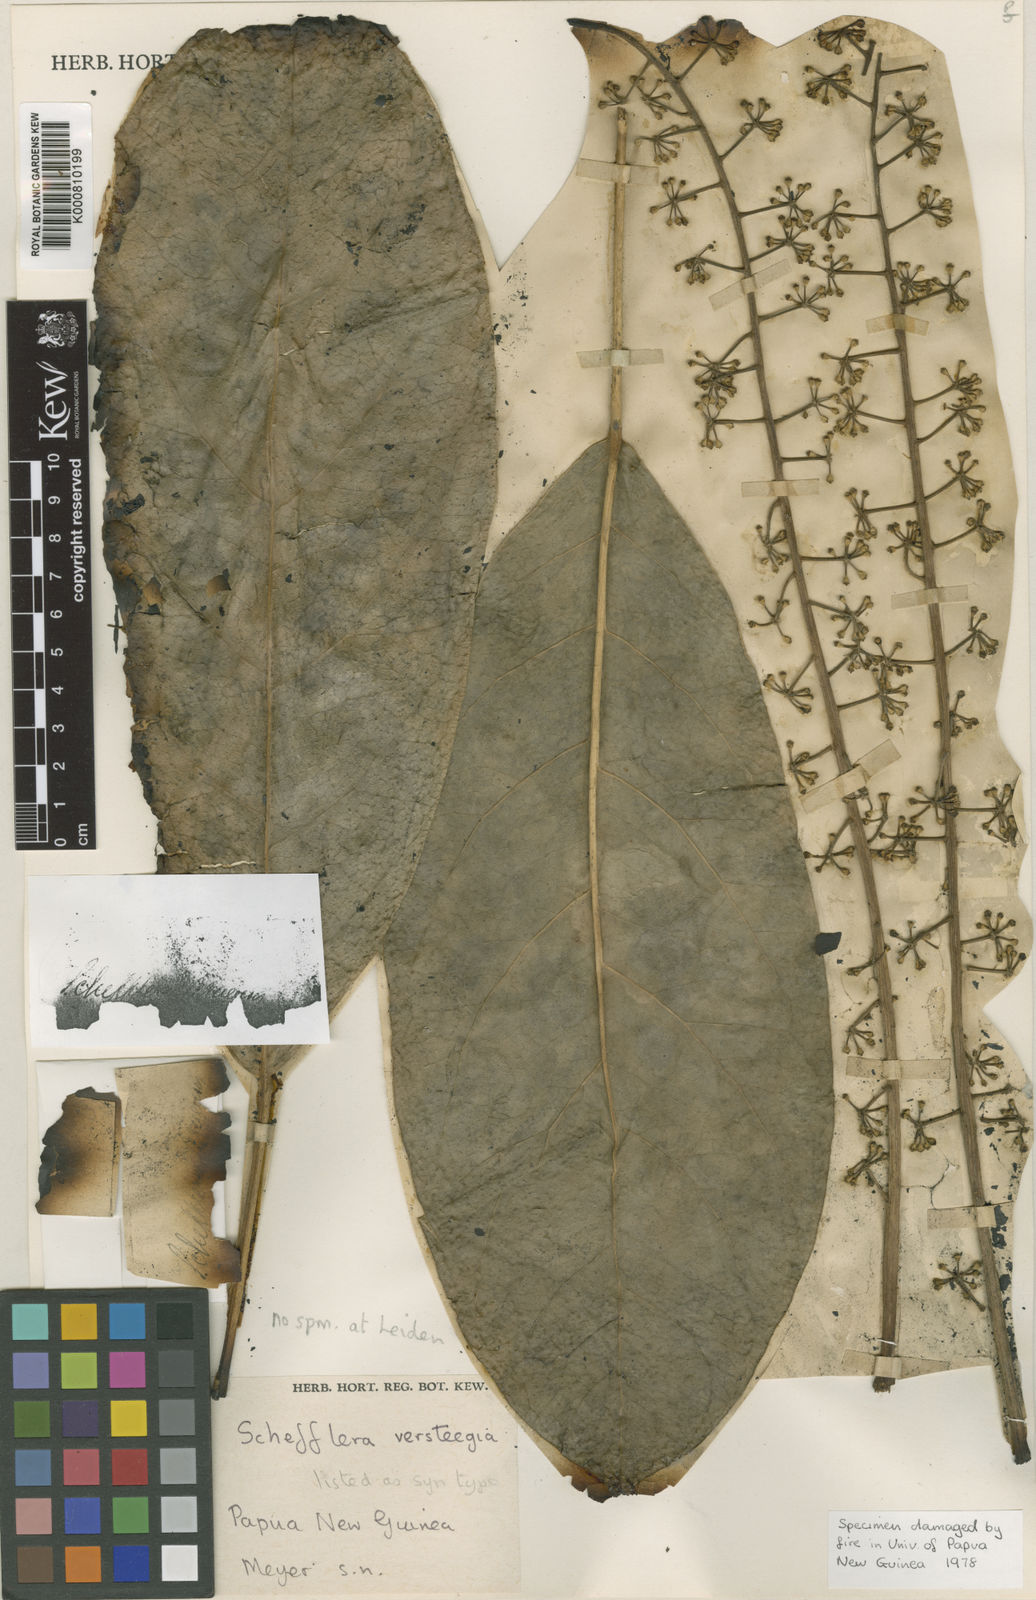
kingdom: Plantae
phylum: Tracheophyta
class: Magnoliopsida
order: Apiales
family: Araliaceae
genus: Heptapleurum
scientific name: Heptapleurum bractescens
